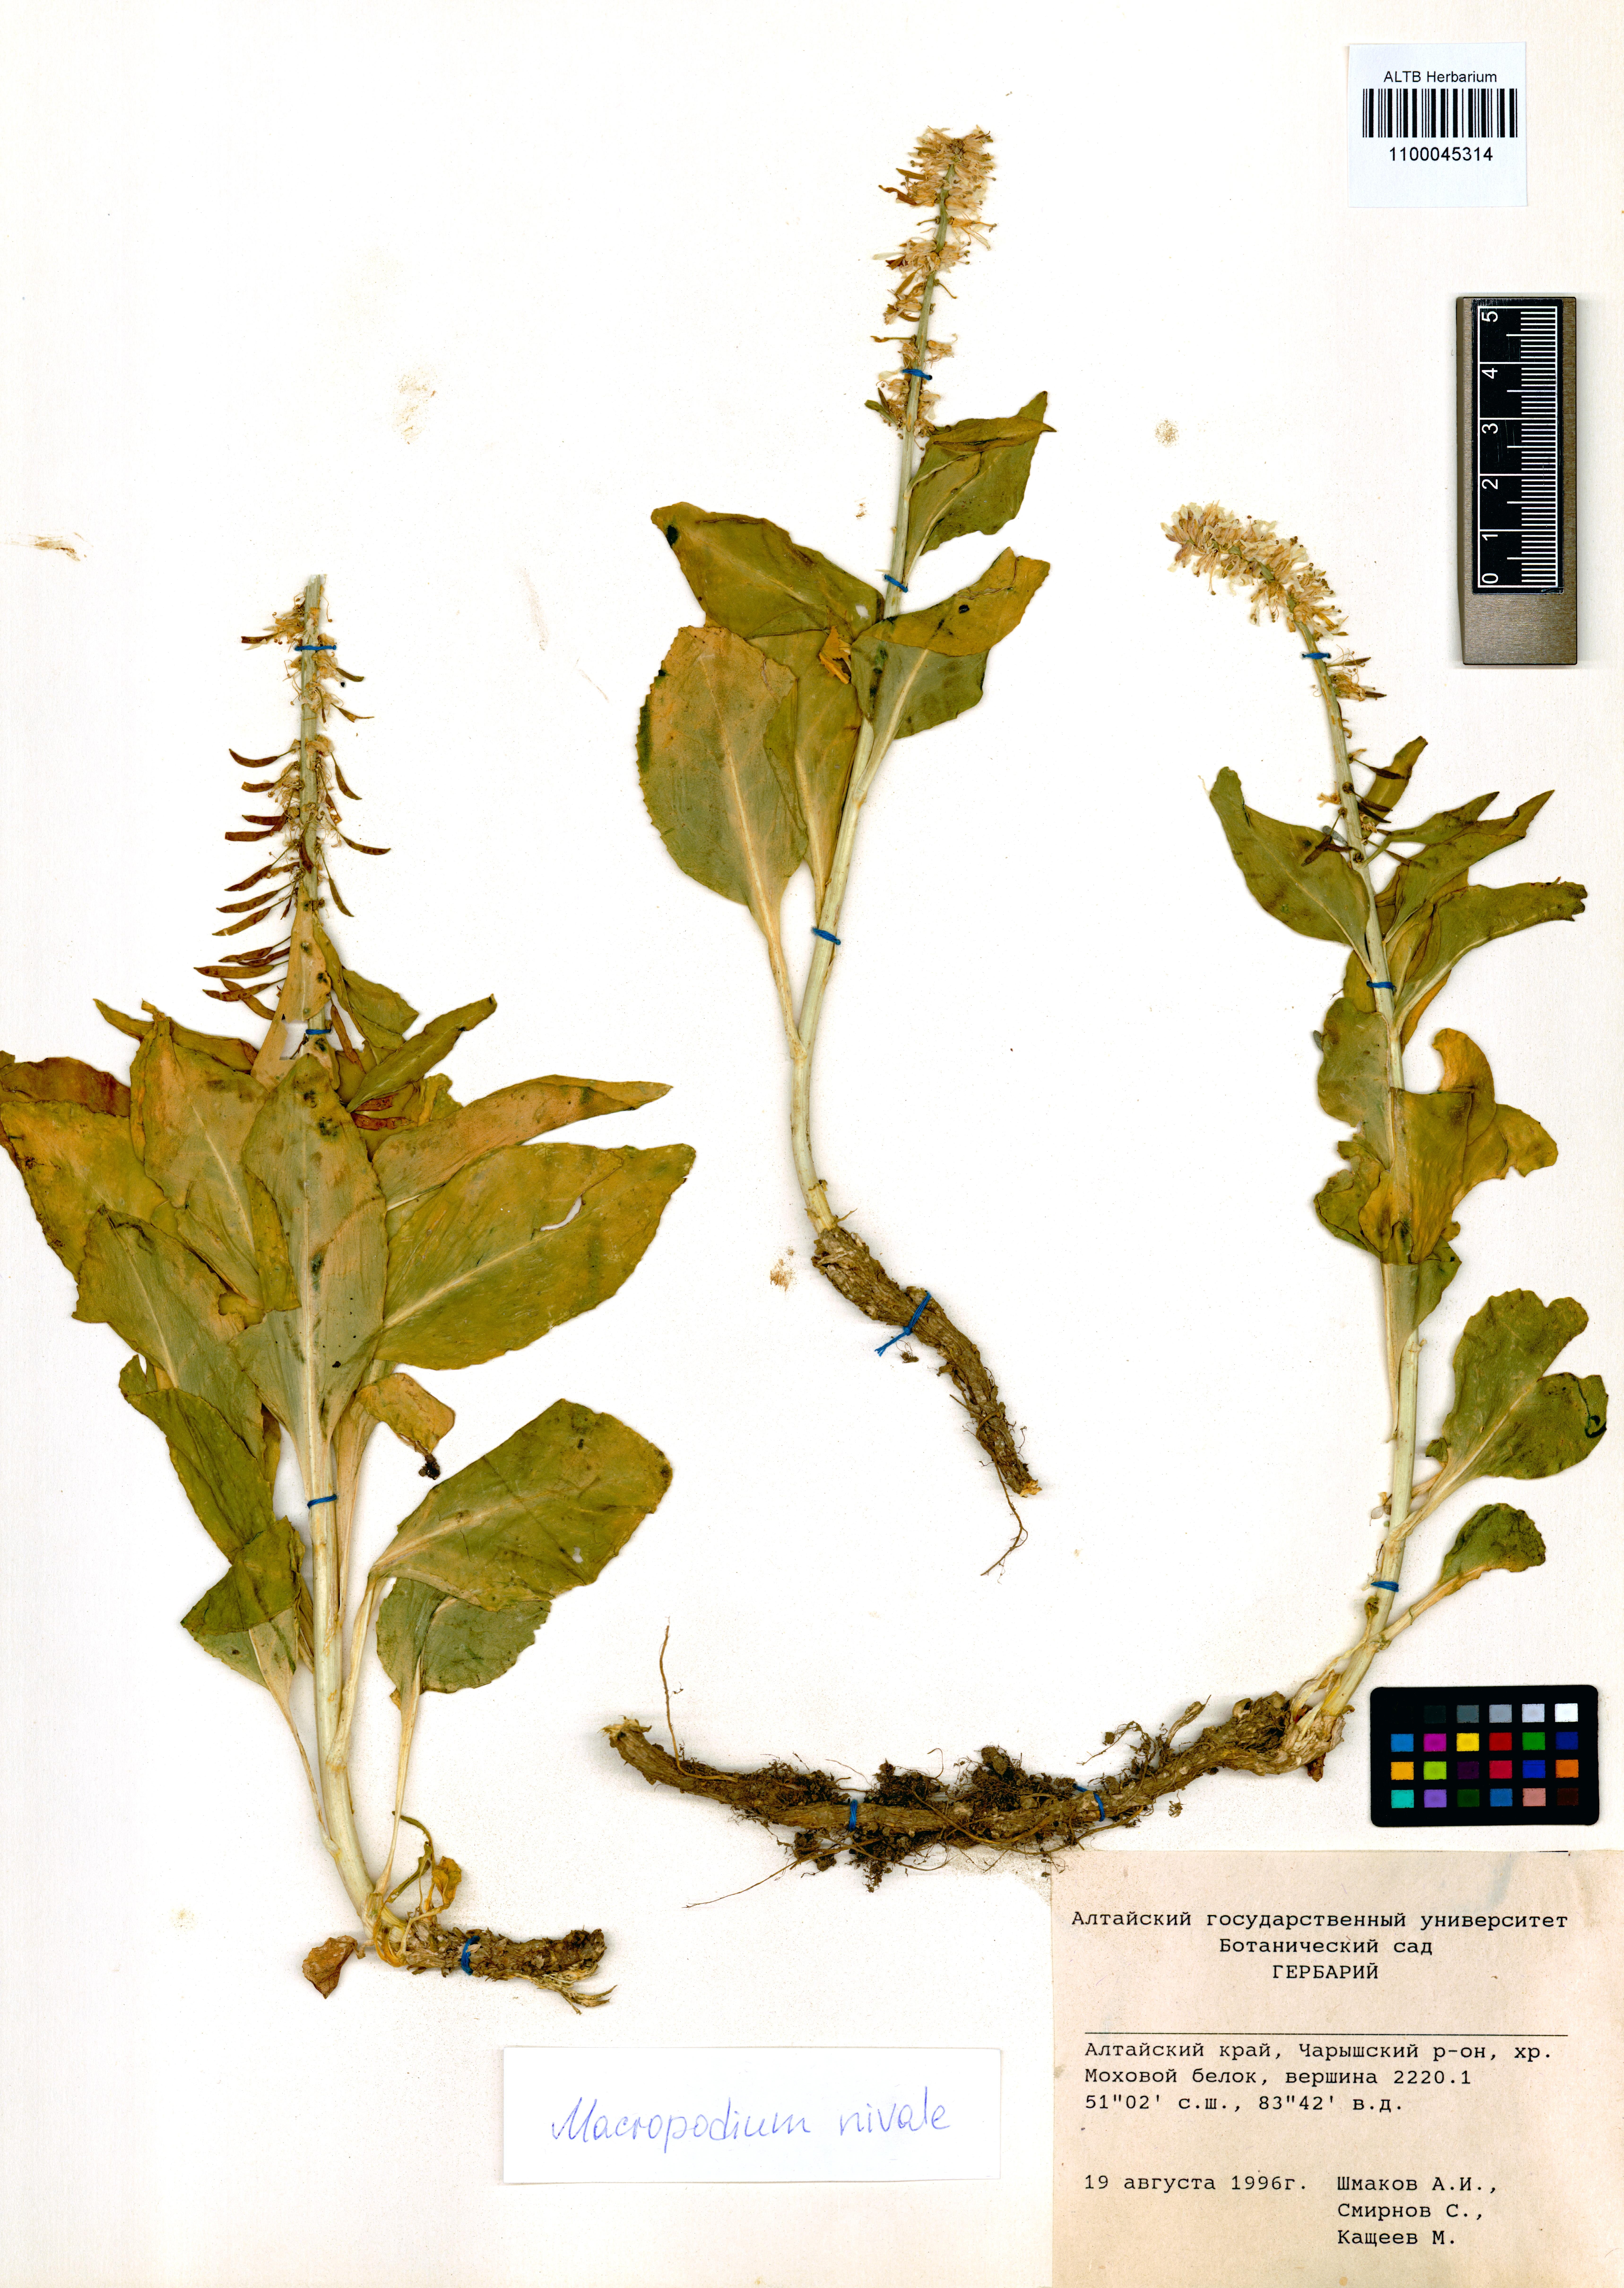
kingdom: Plantae
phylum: Tracheophyta
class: Magnoliopsida
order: Brassicales
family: Brassicaceae
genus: Macropodium
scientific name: Macropodium nivale
